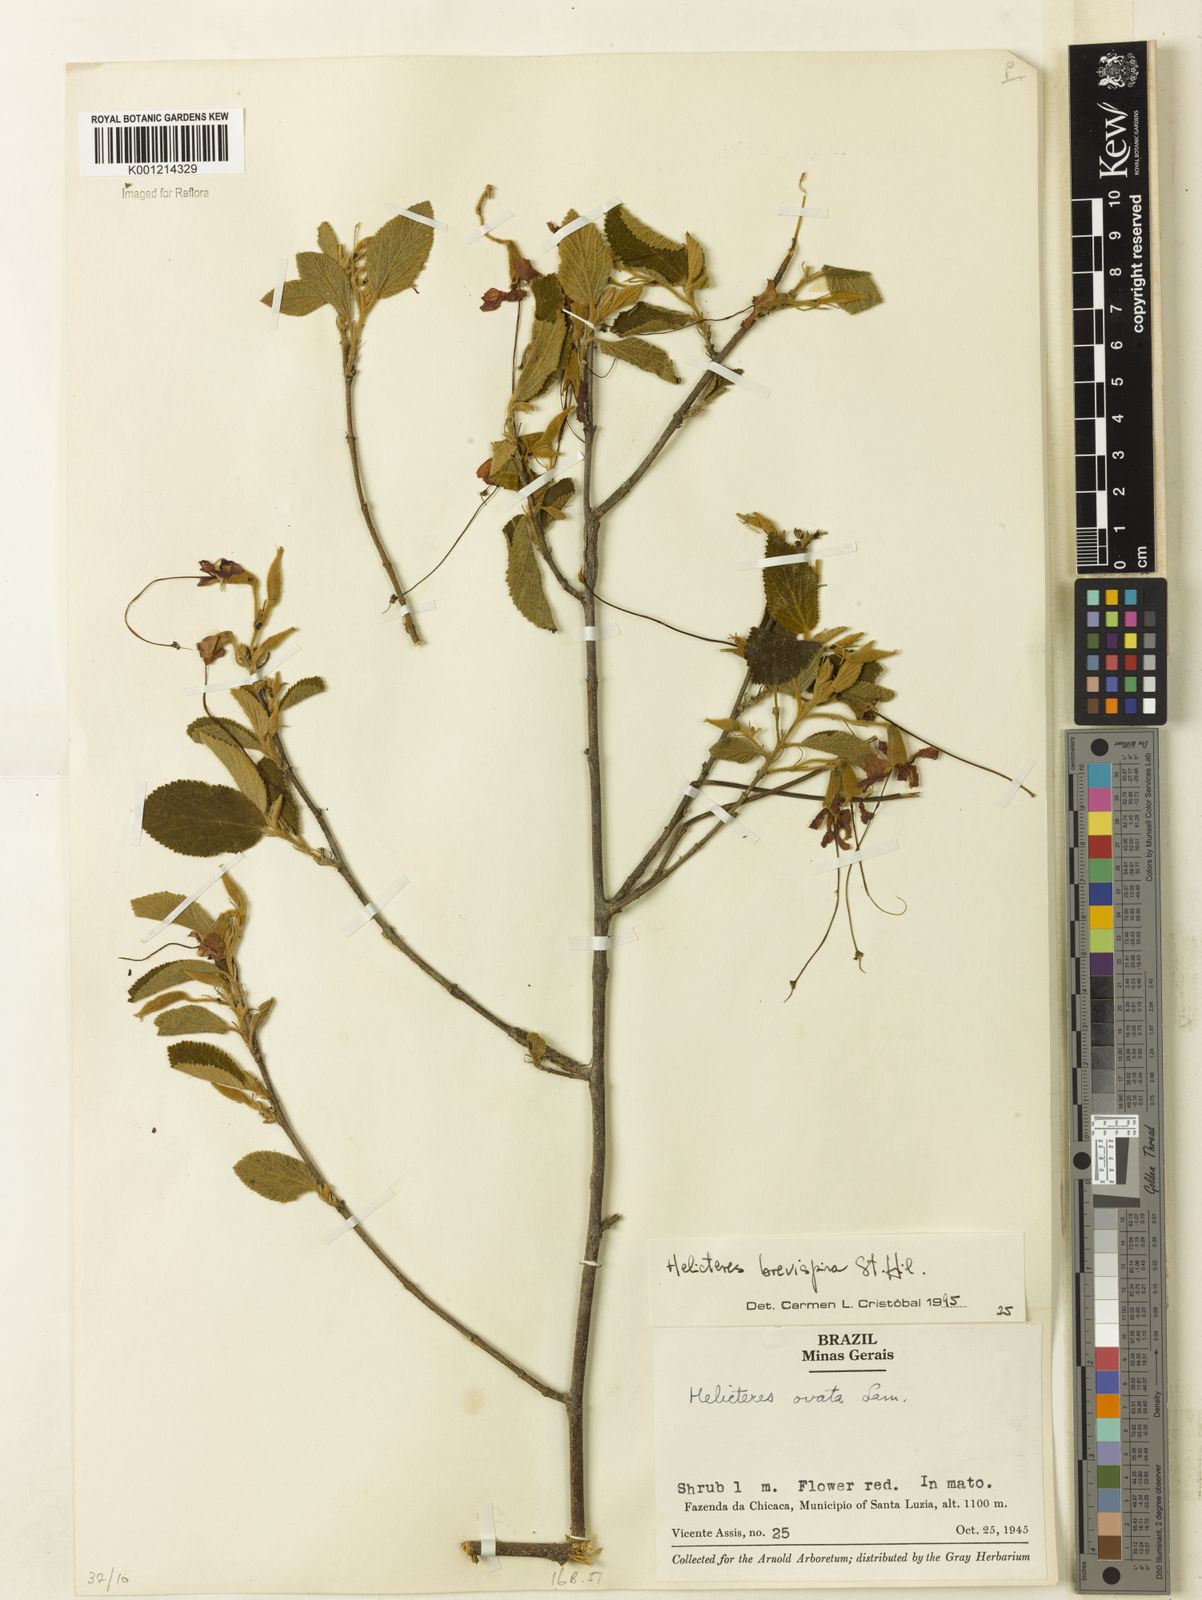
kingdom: Plantae
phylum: Tracheophyta
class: Magnoliopsida
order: Malvales
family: Malvaceae
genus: Helicteres
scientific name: Helicteres
